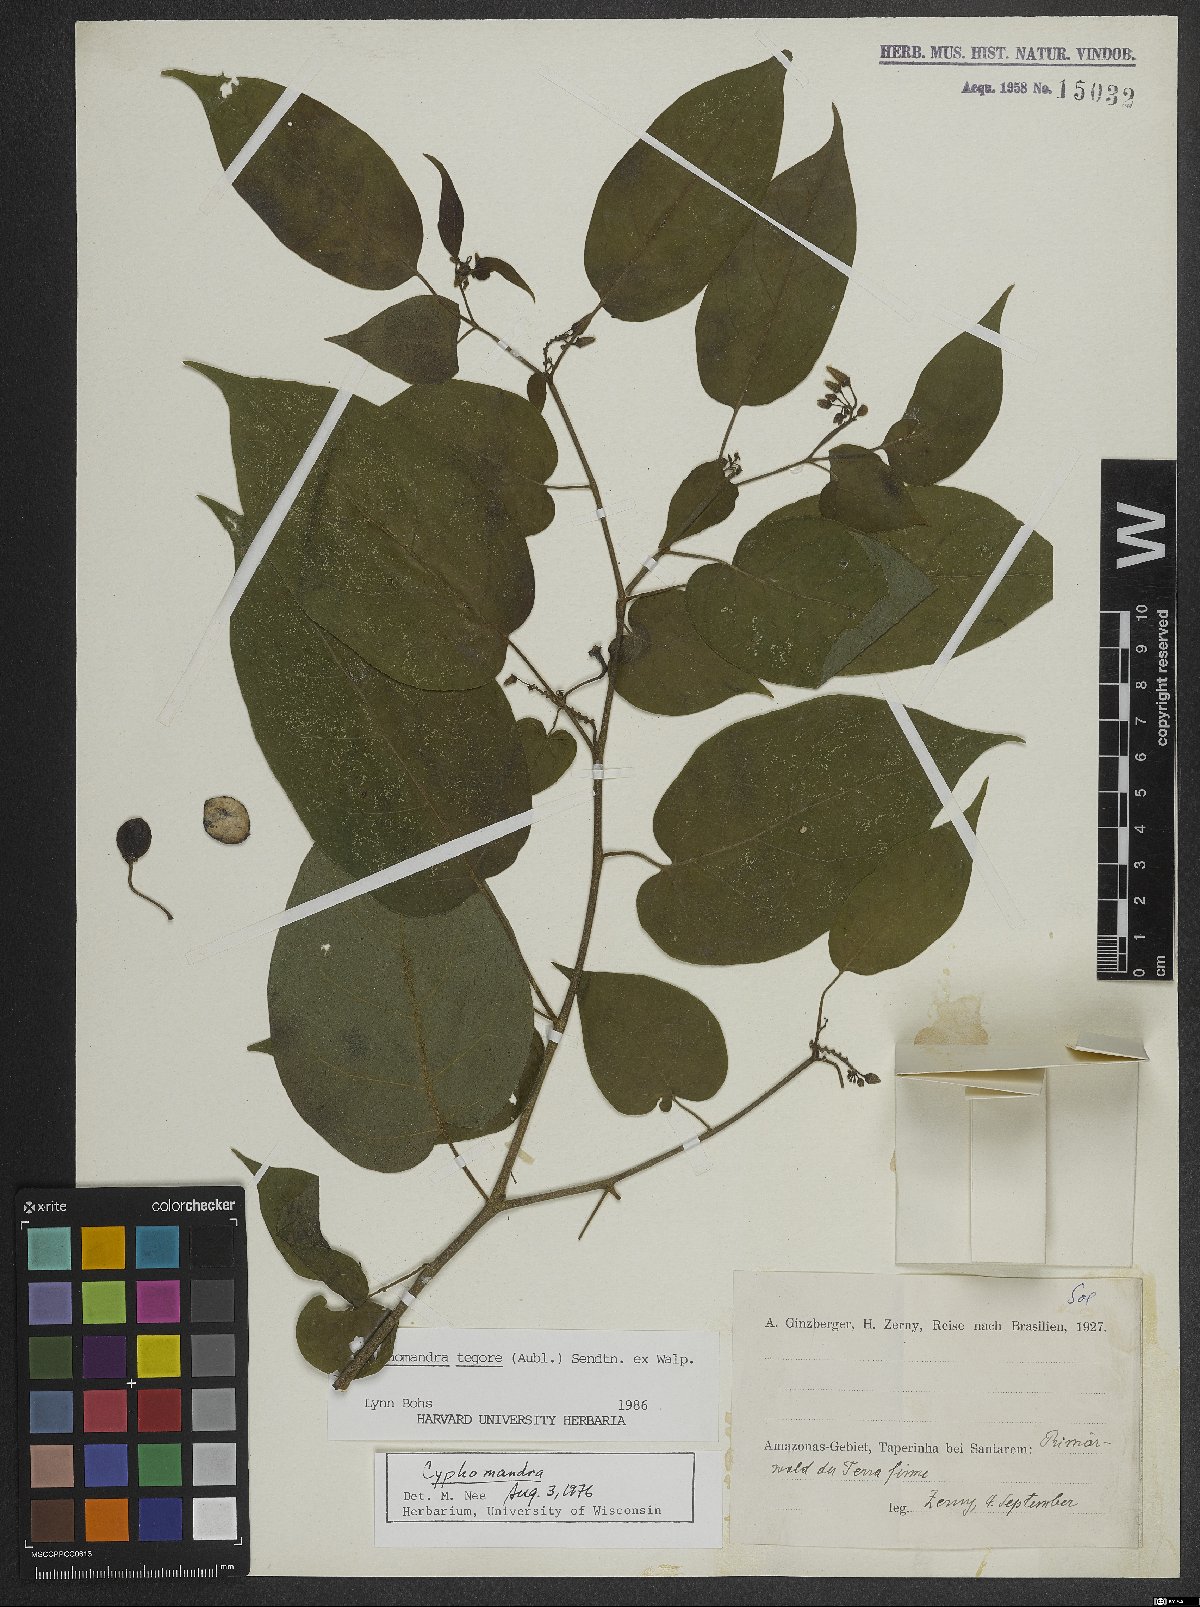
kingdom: Plantae
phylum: Tracheophyta
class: Magnoliopsida
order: Solanales
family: Solanaceae
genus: Solanum
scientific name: Solanum tegore
